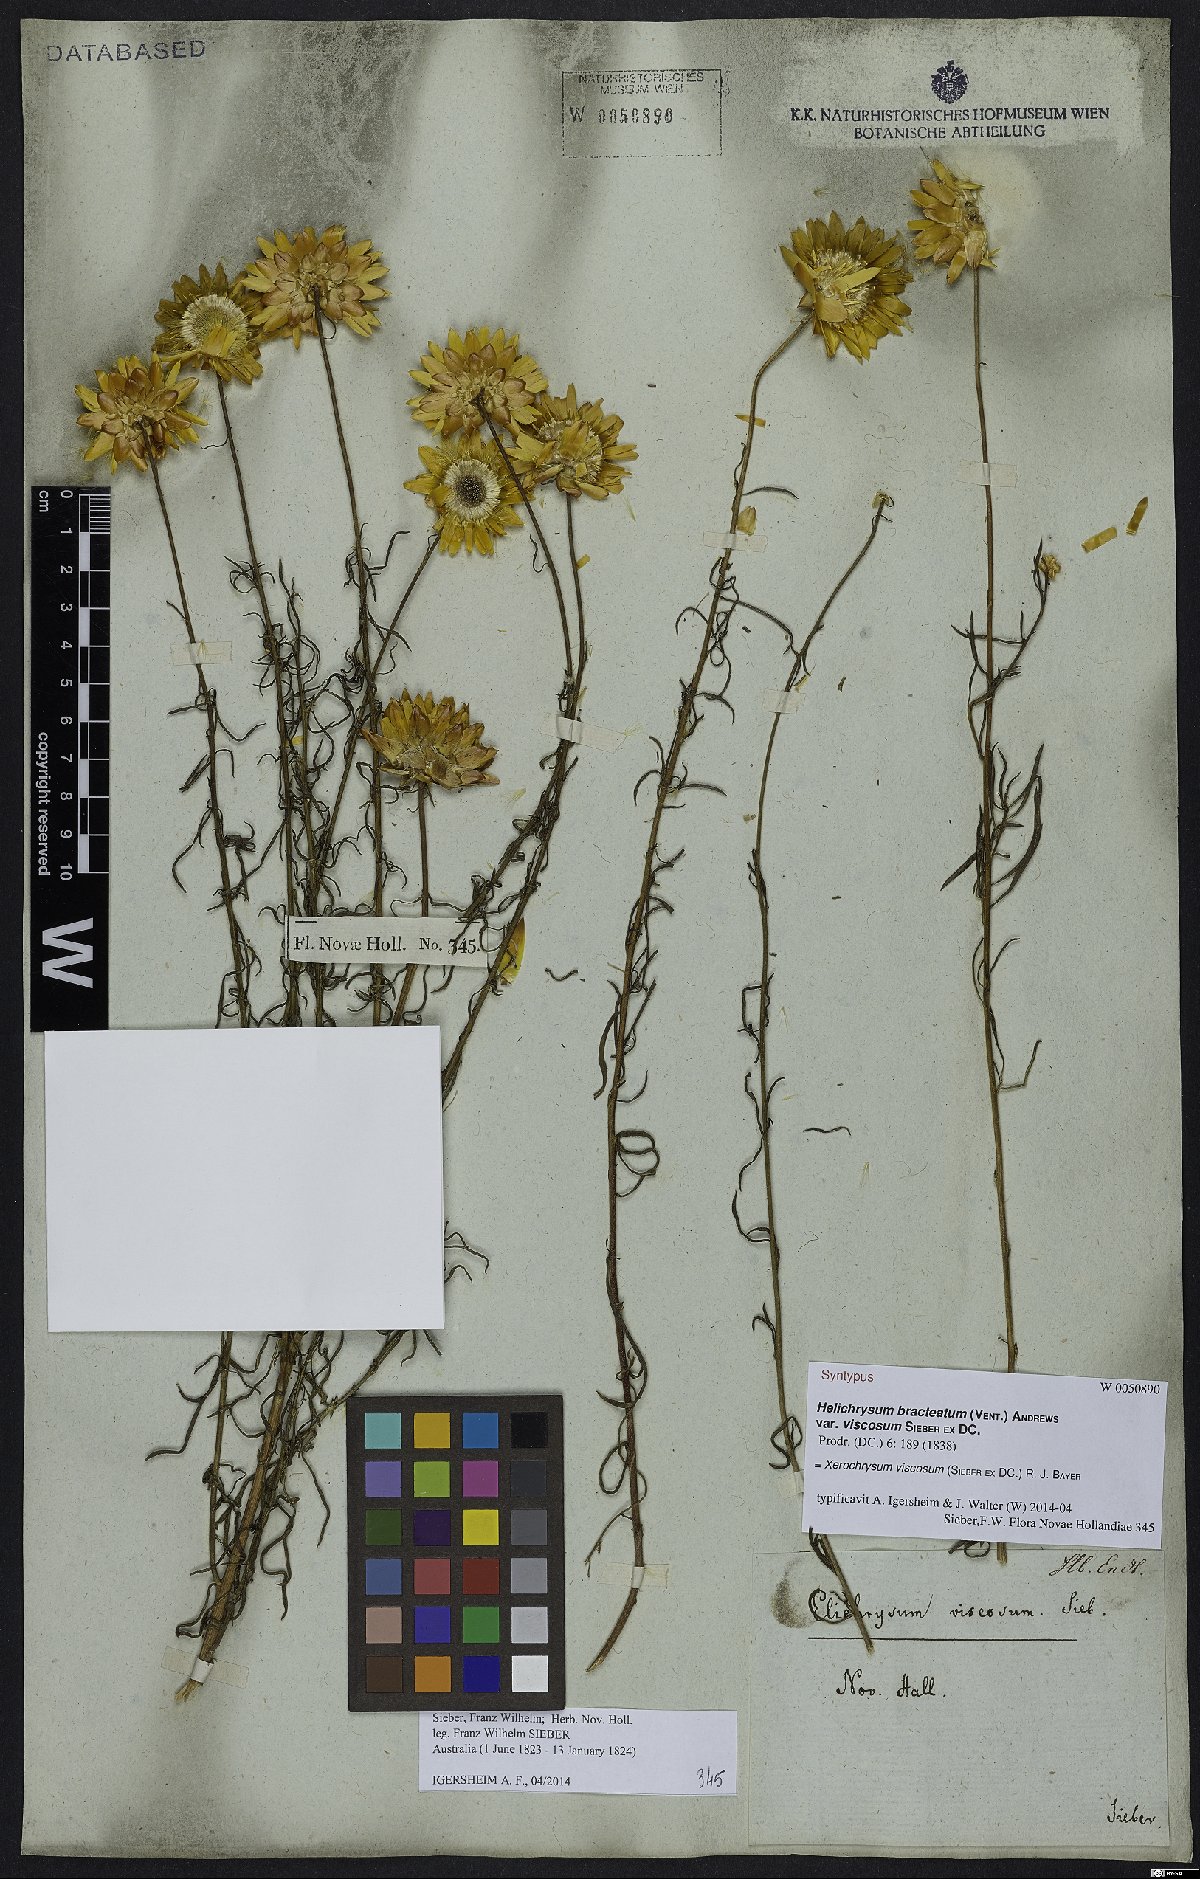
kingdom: Plantae
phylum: Tracheophyta
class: Magnoliopsida
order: Asterales
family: Asteraceae
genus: Xerochrysum
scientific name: Xerochrysum viscosum
